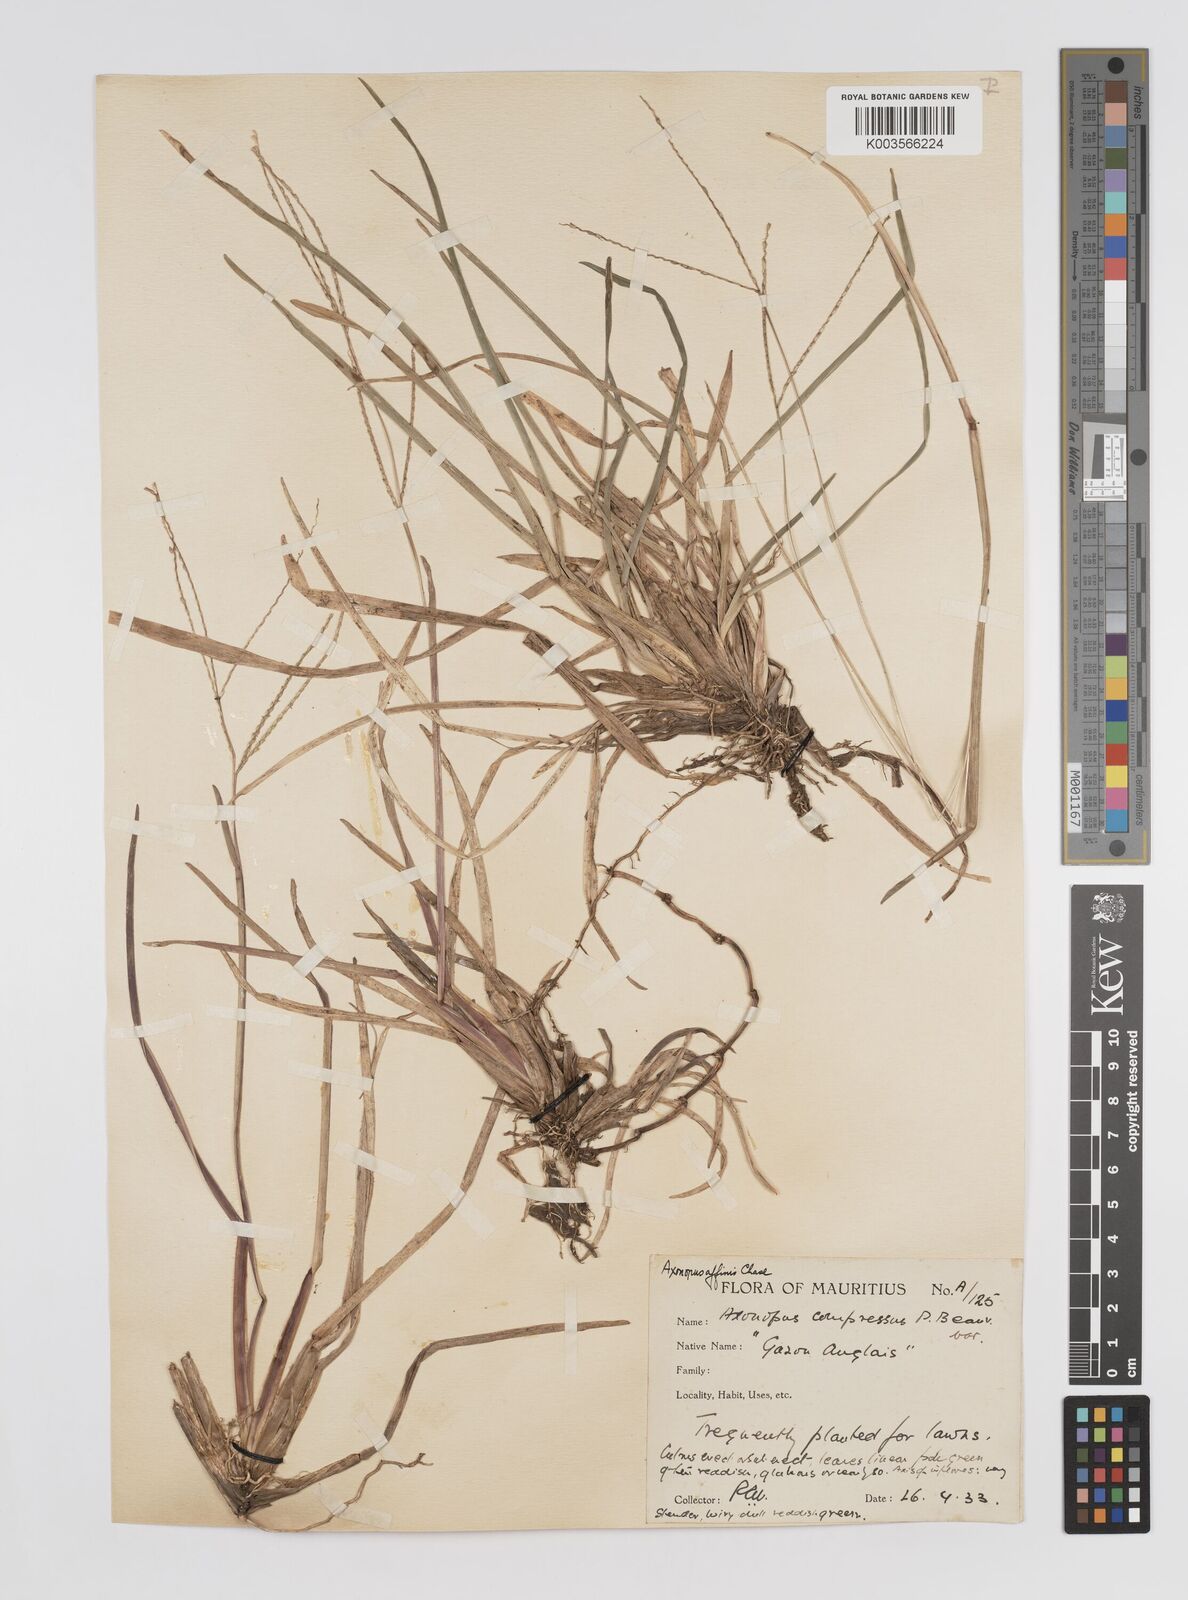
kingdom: Plantae
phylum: Tracheophyta
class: Liliopsida
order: Poales
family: Poaceae
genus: Axonopus
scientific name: Axonopus fissifolius
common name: Common carpetgrass
